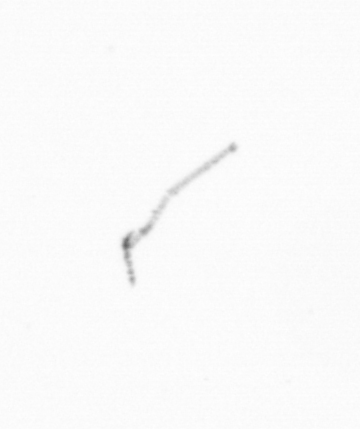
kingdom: Chromista
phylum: Ochrophyta
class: Bacillariophyceae
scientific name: Bacillariophyceae
